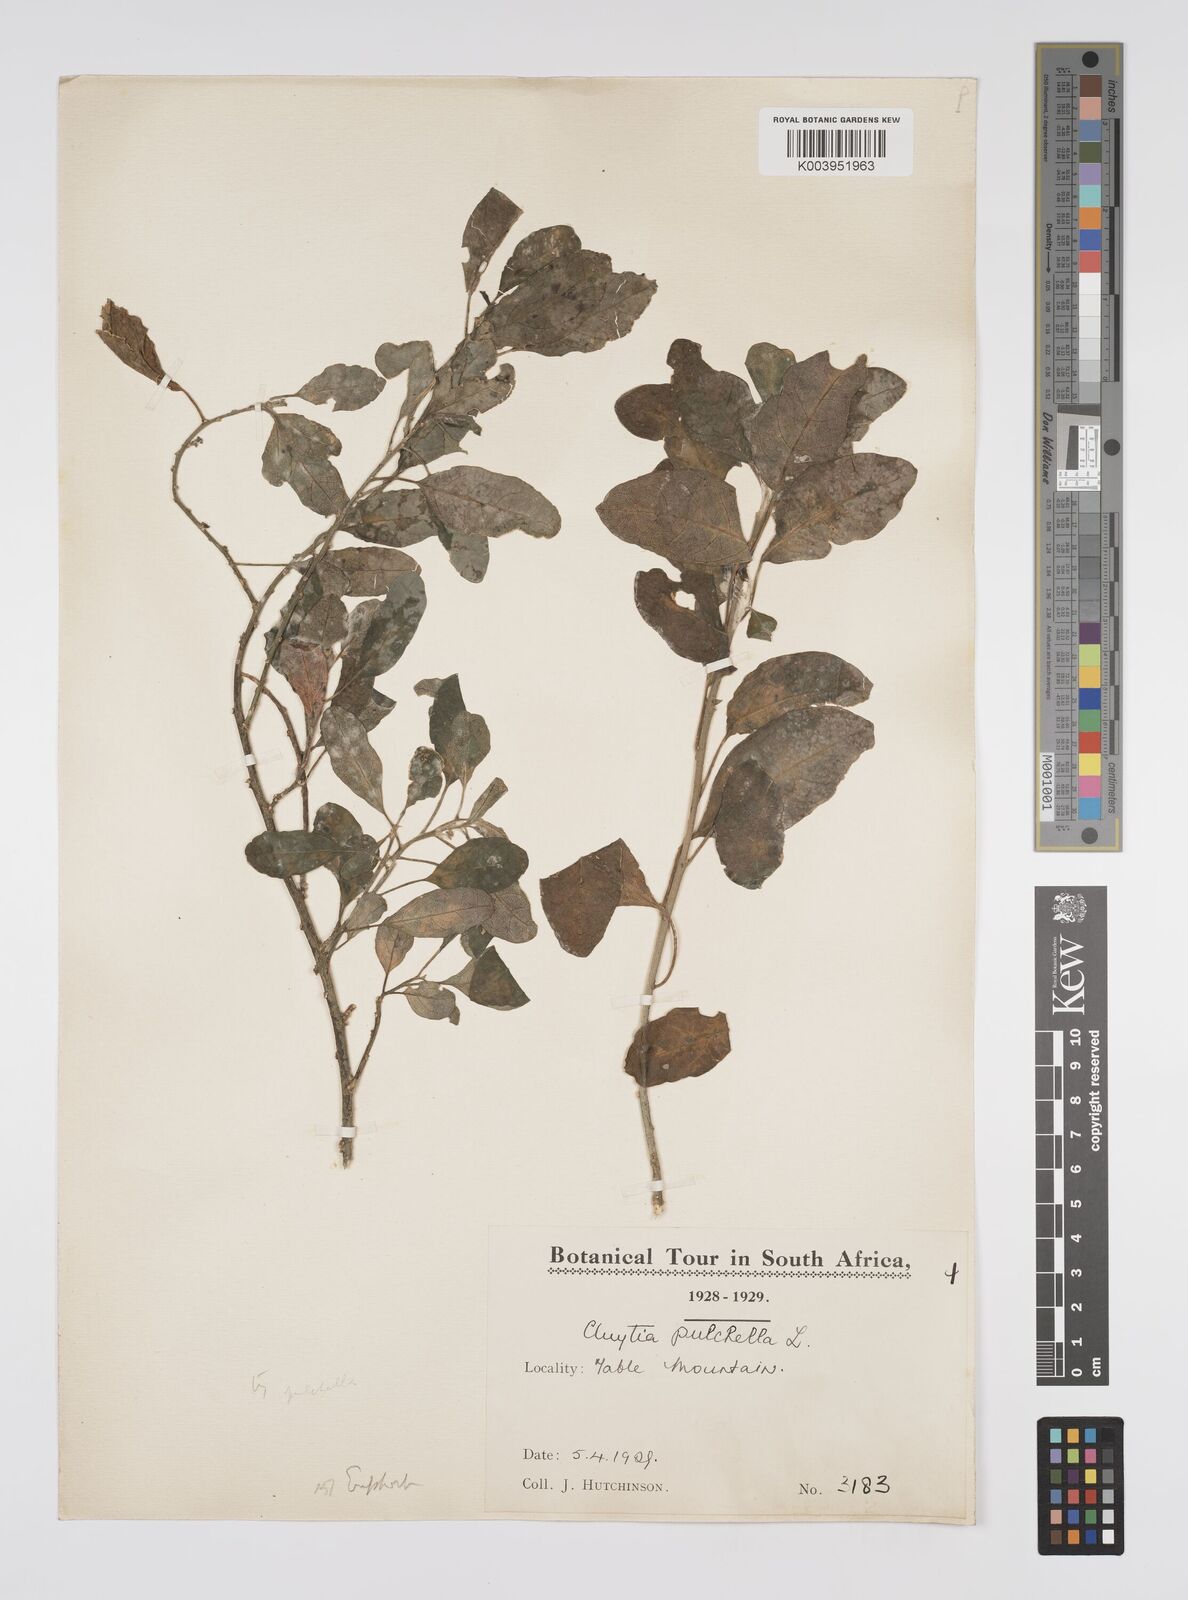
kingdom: Plantae
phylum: Tracheophyta
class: Magnoliopsida
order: Malpighiales
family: Peraceae
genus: Clutia
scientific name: Clutia pulchella
